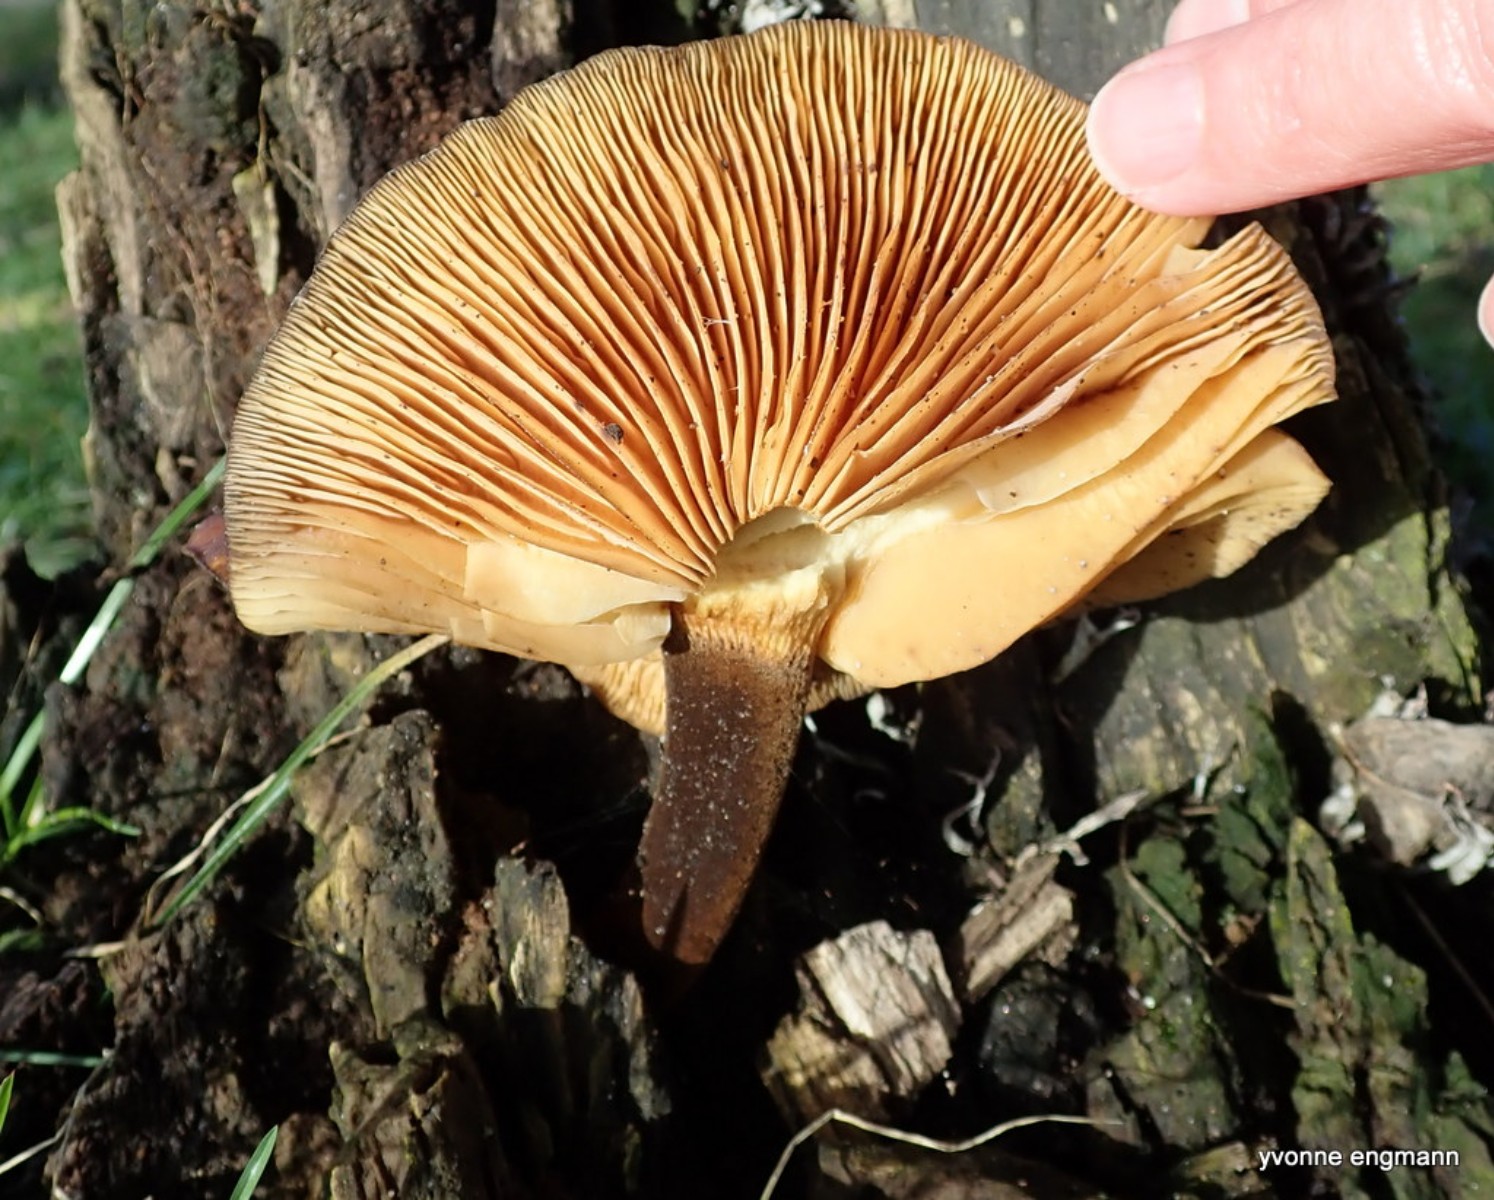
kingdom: Fungi
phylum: Basidiomycota
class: Agaricomycetes
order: Agaricales
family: Physalacriaceae
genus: Flammulina
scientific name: Flammulina velutipes
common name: gul fløjlsfod
